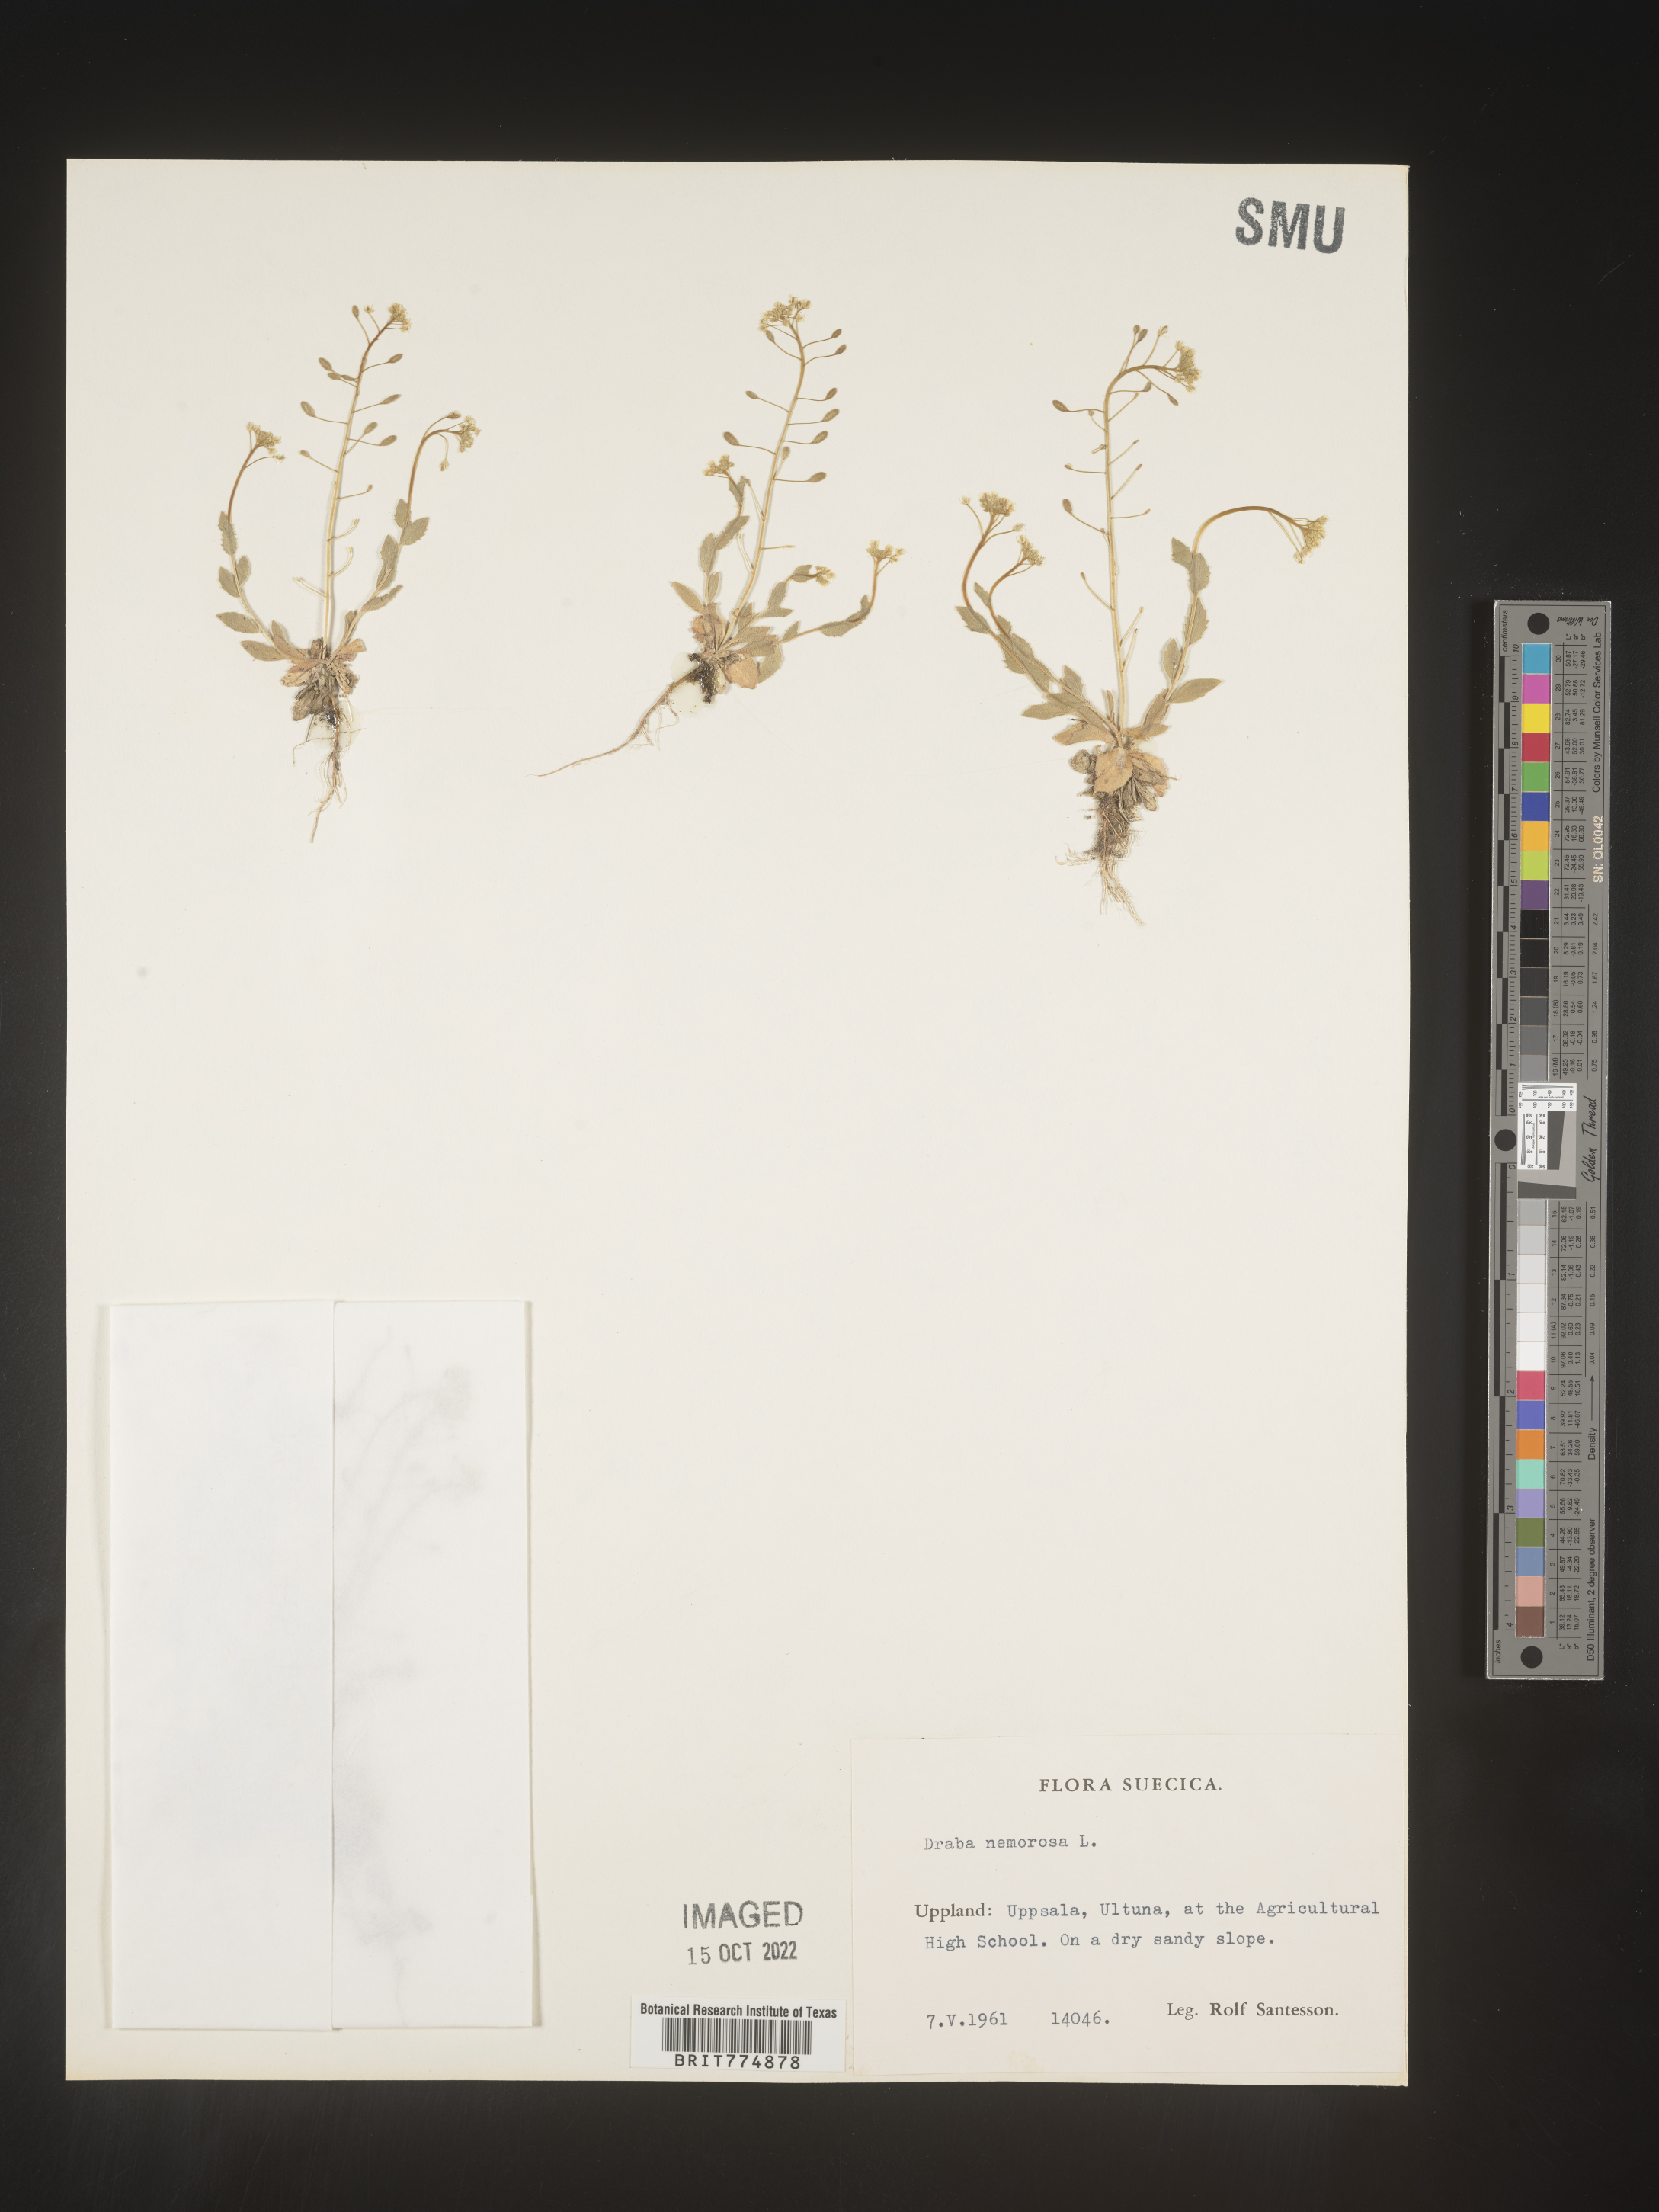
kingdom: Plantae
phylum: Tracheophyta
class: Magnoliopsida
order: Brassicales
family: Brassicaceae
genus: Draba
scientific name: Draba
